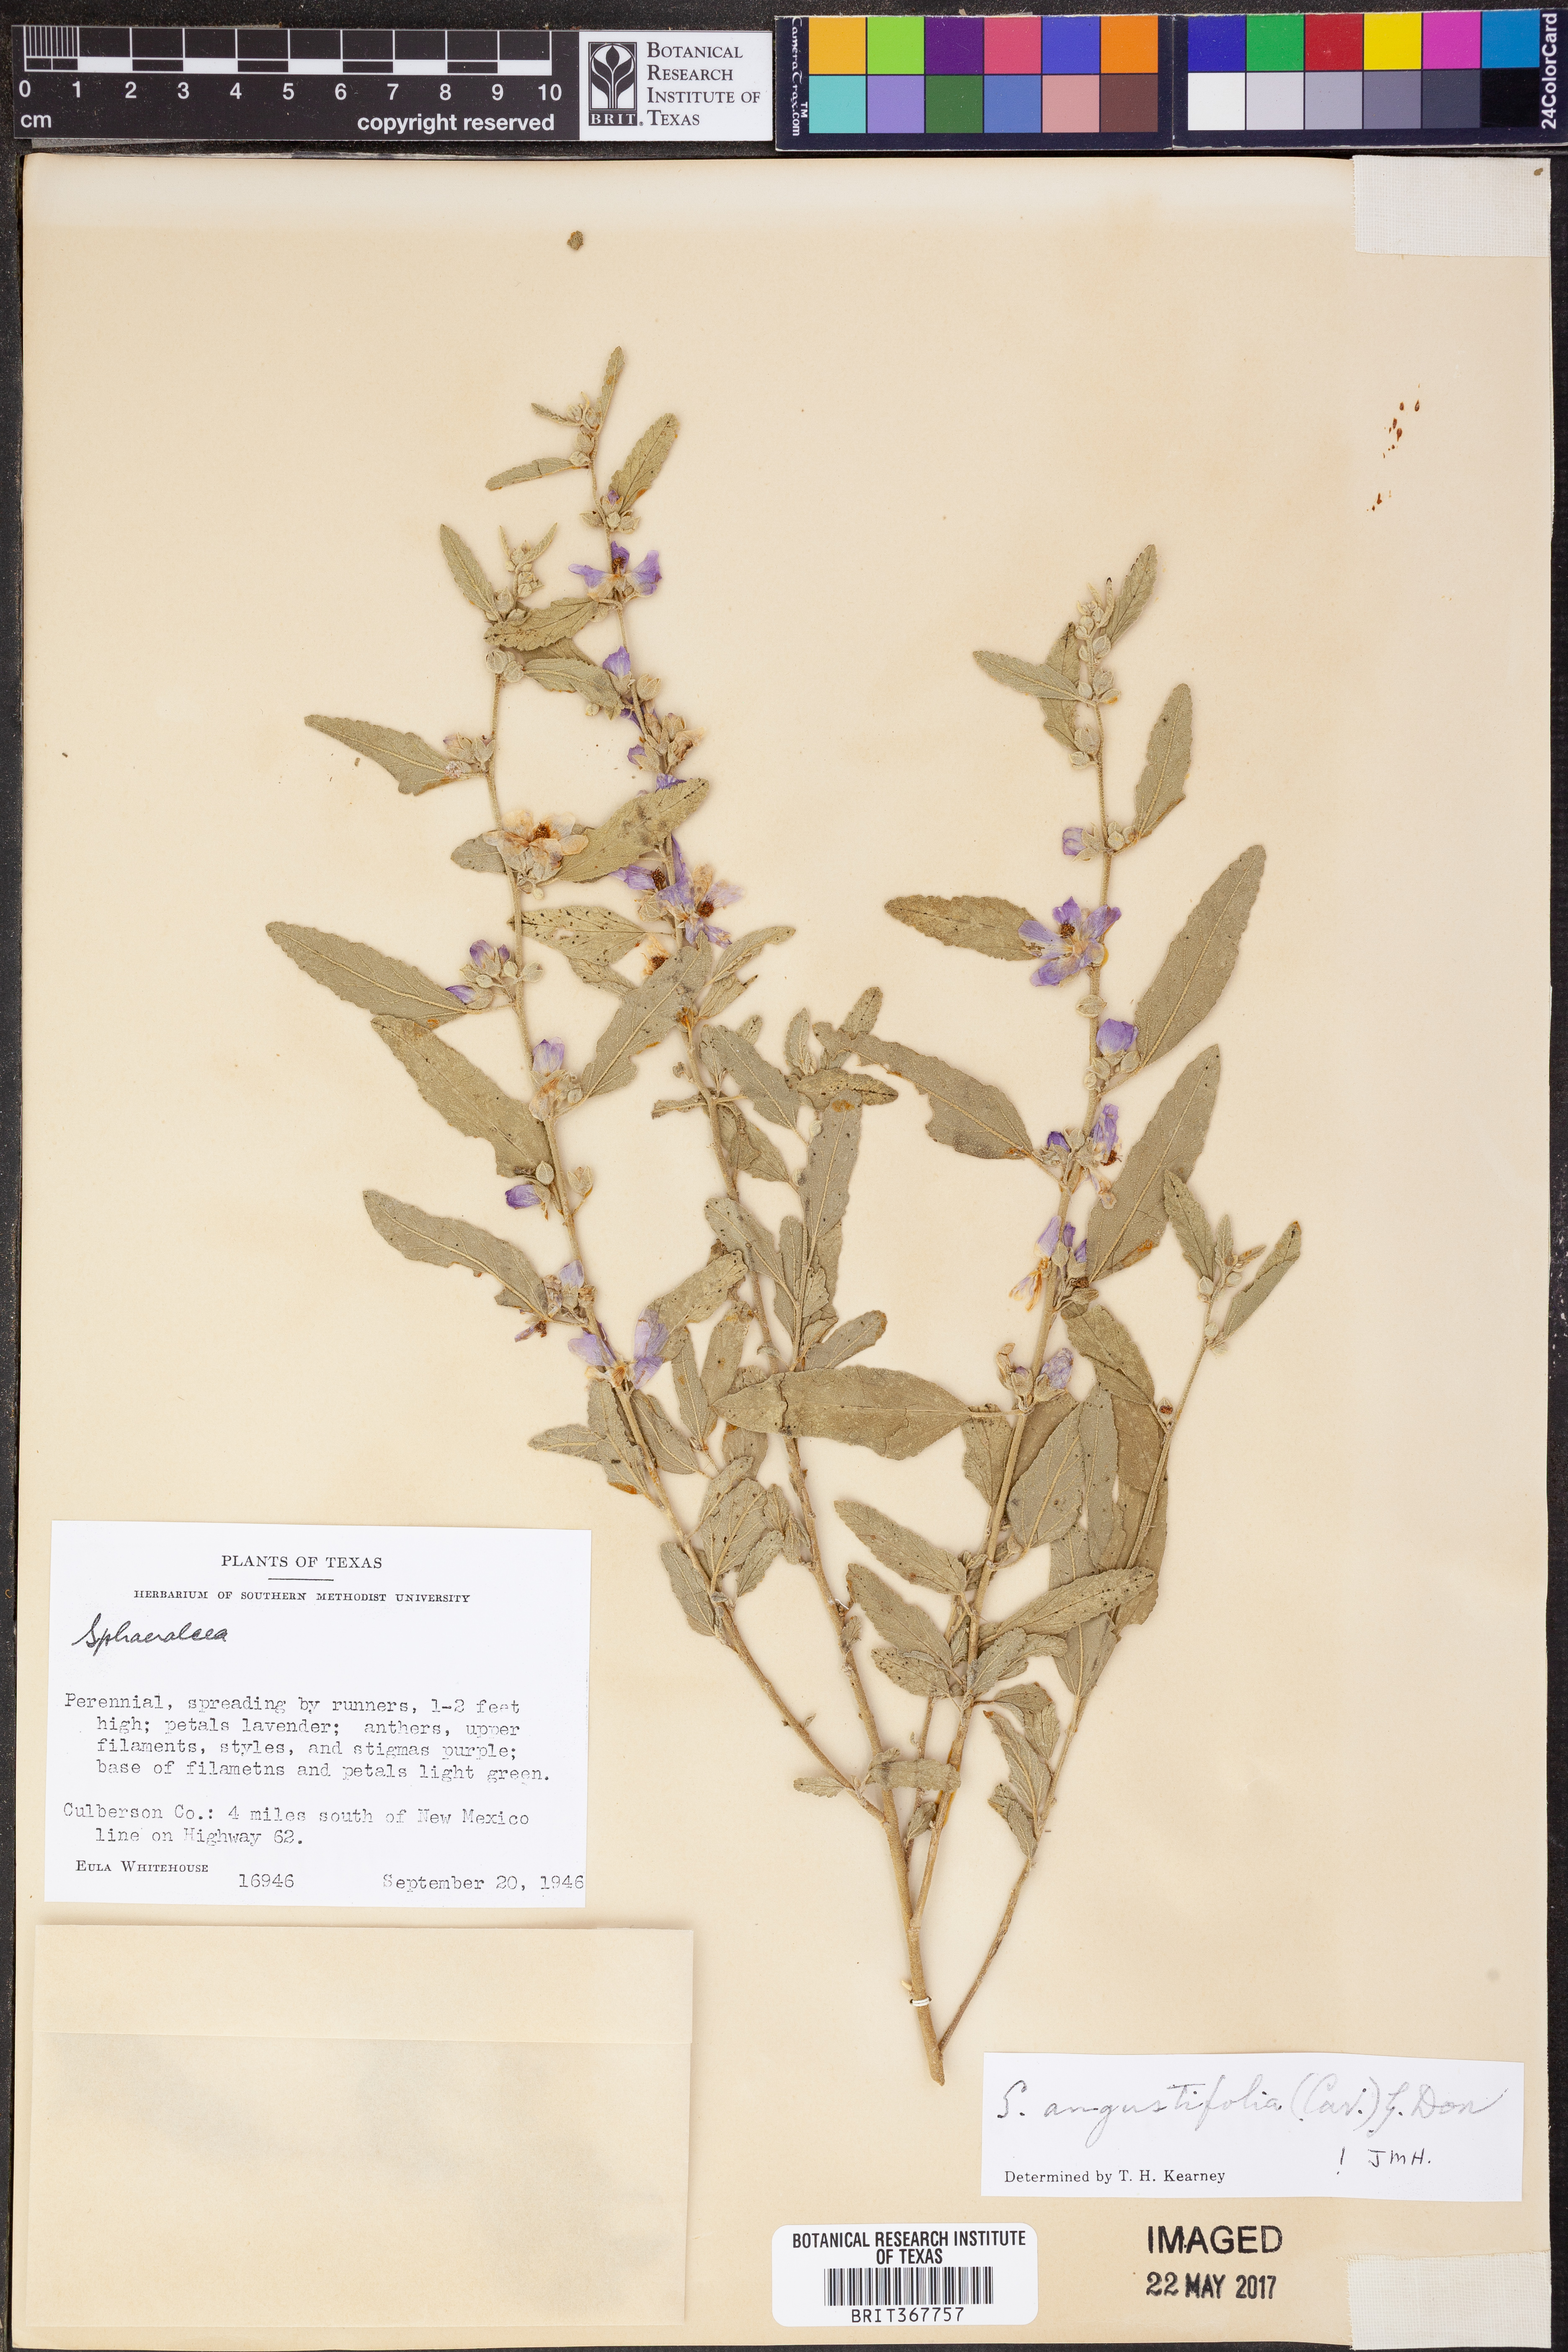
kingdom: Plantae
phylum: Tracheophyta
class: Magnoliopsida
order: Malvales
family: Malvaceae
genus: Sphaeralcea
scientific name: Sphaeralcea angustifolia
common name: Copper globe-mallow
